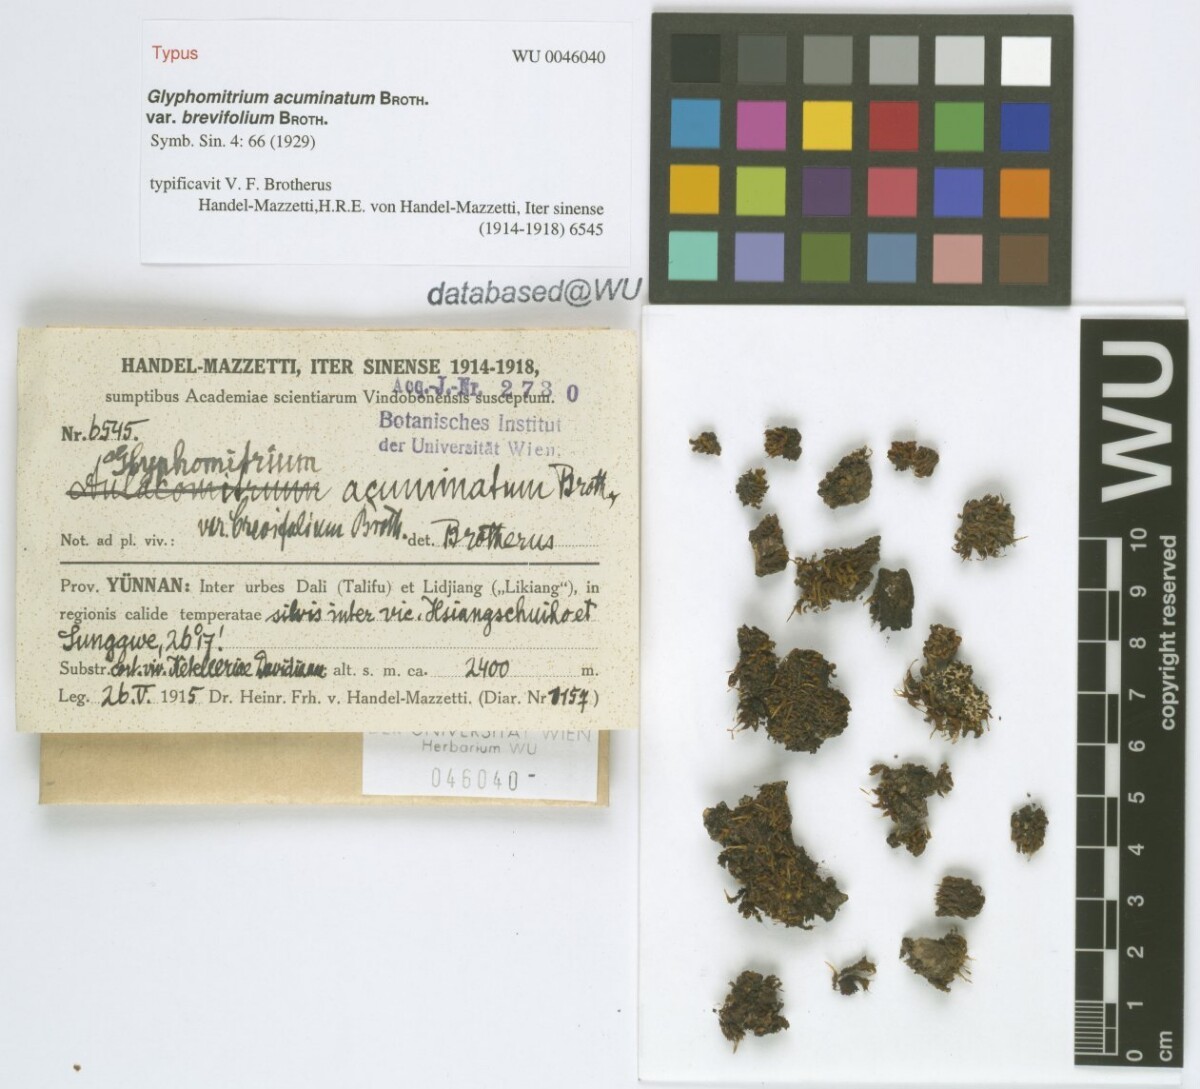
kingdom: Plantae
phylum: Bryophyta
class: Bryopsida
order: Dicranales
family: Rhabdoweisiaceae
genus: Glyphomitrium
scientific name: Glyphomitrium acuminatum
